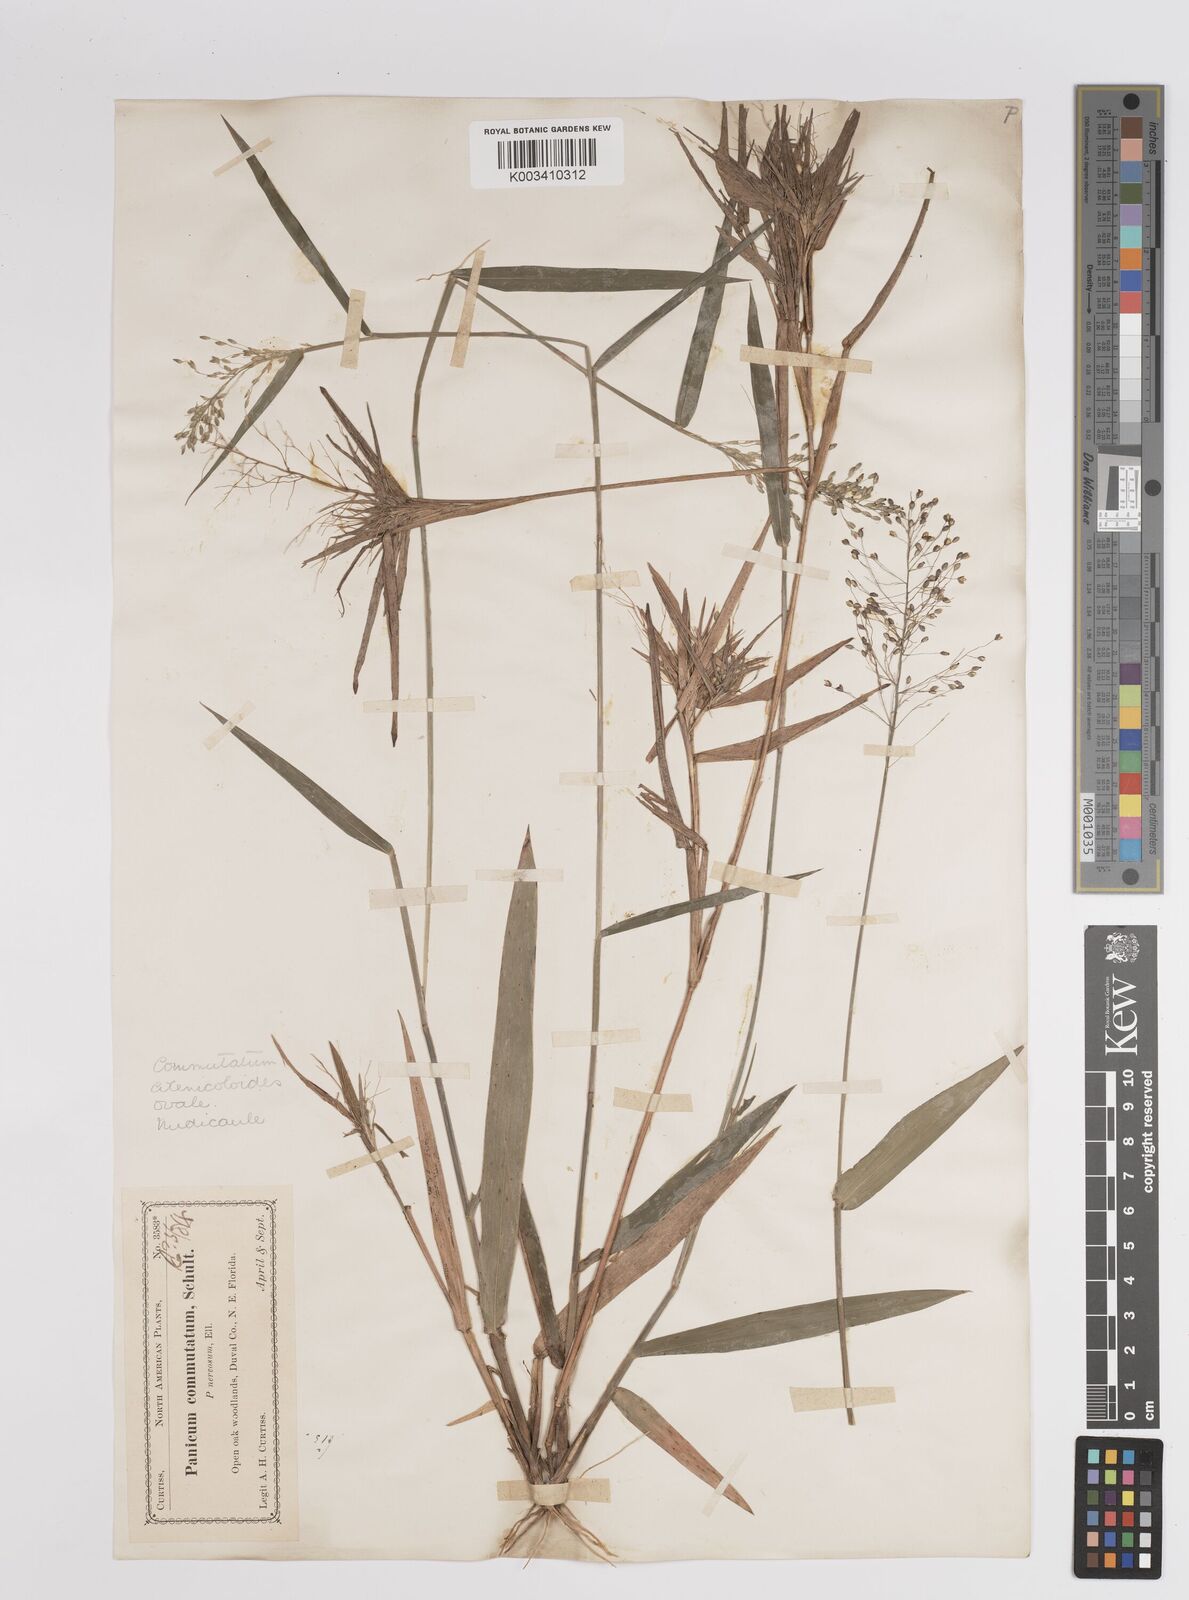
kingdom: Plantae
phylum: Tracheophyta
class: Liliopsida
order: Poales
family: Poaceae
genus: Dichanthelium
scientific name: Dichanthelium aciculare
